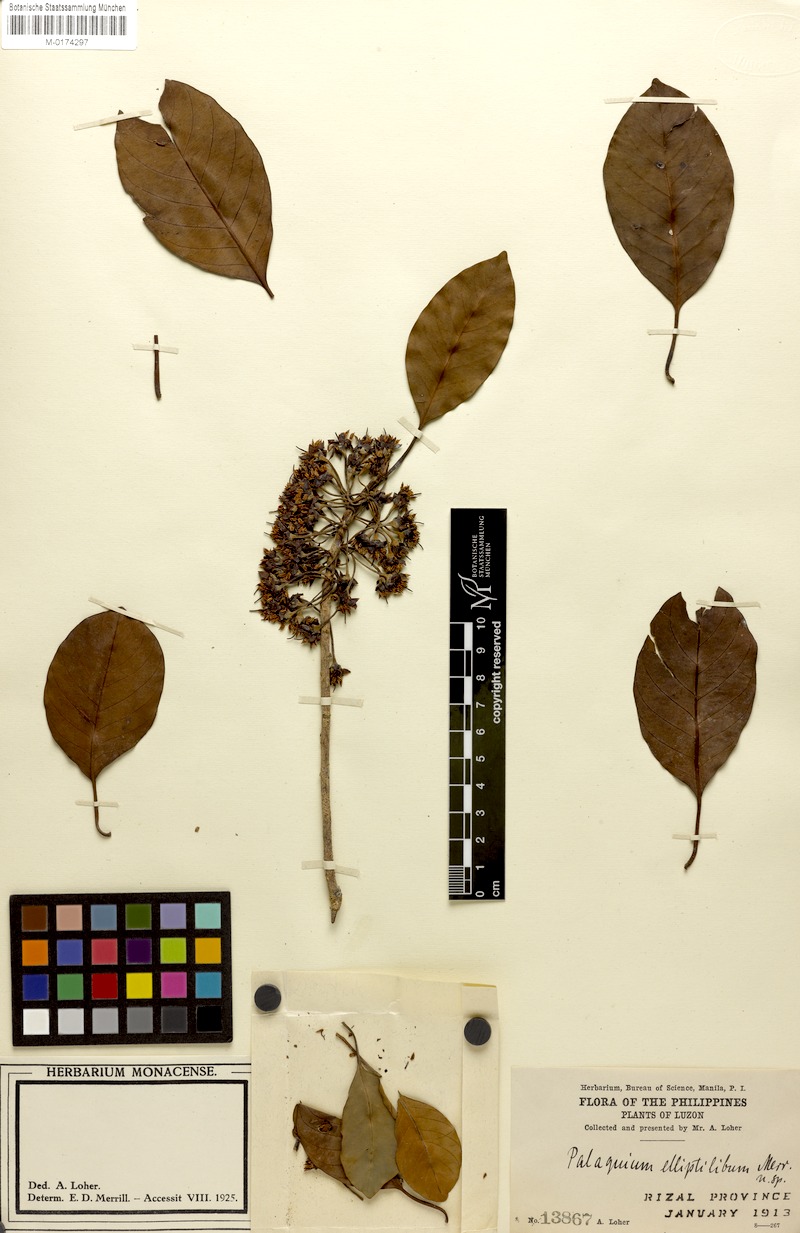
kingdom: Plantae
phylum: Tracheophyta
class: Magnoliopsida
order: Ericales
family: Sapotaceae
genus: Palaquium
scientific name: Palaquium elliptilimbum
